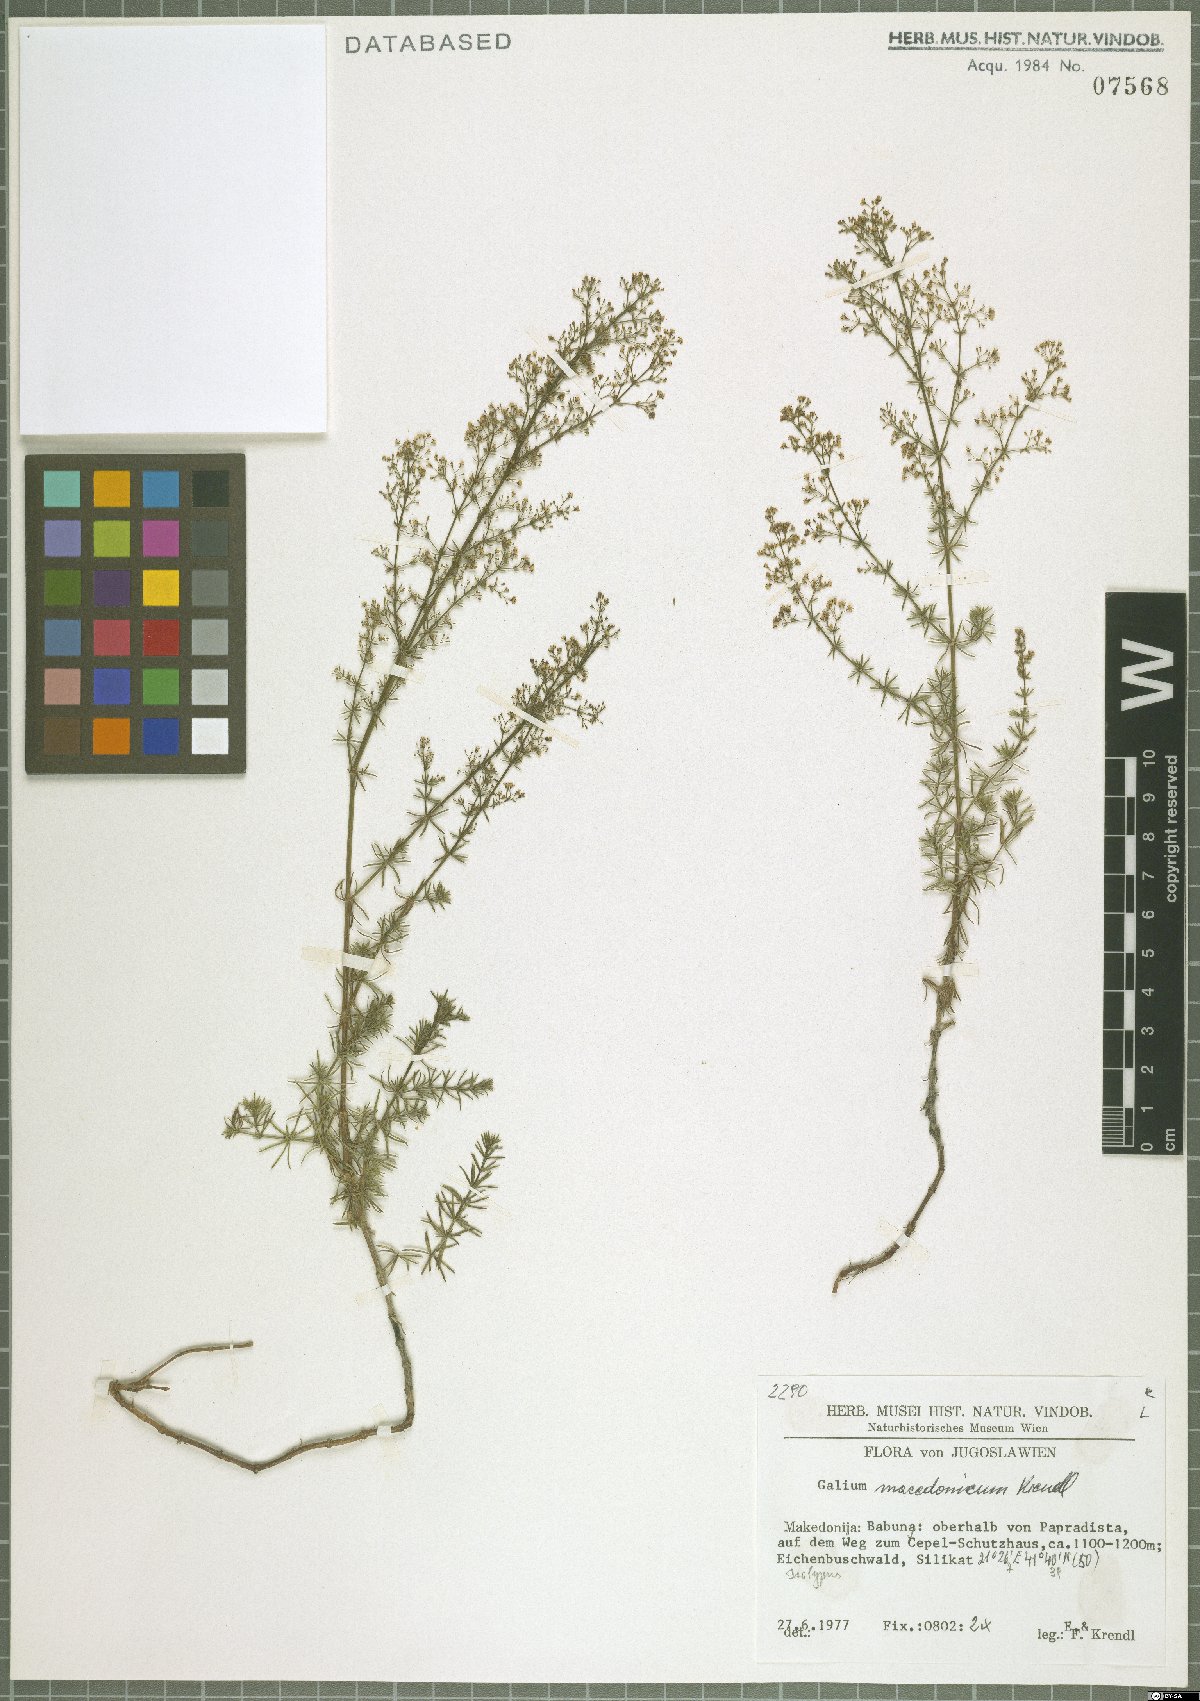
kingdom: Plantae
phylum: Tracheophyta
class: Magnoliopsida
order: Gentianales
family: Rubiaceae
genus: Galium
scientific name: Galium macedonicum
